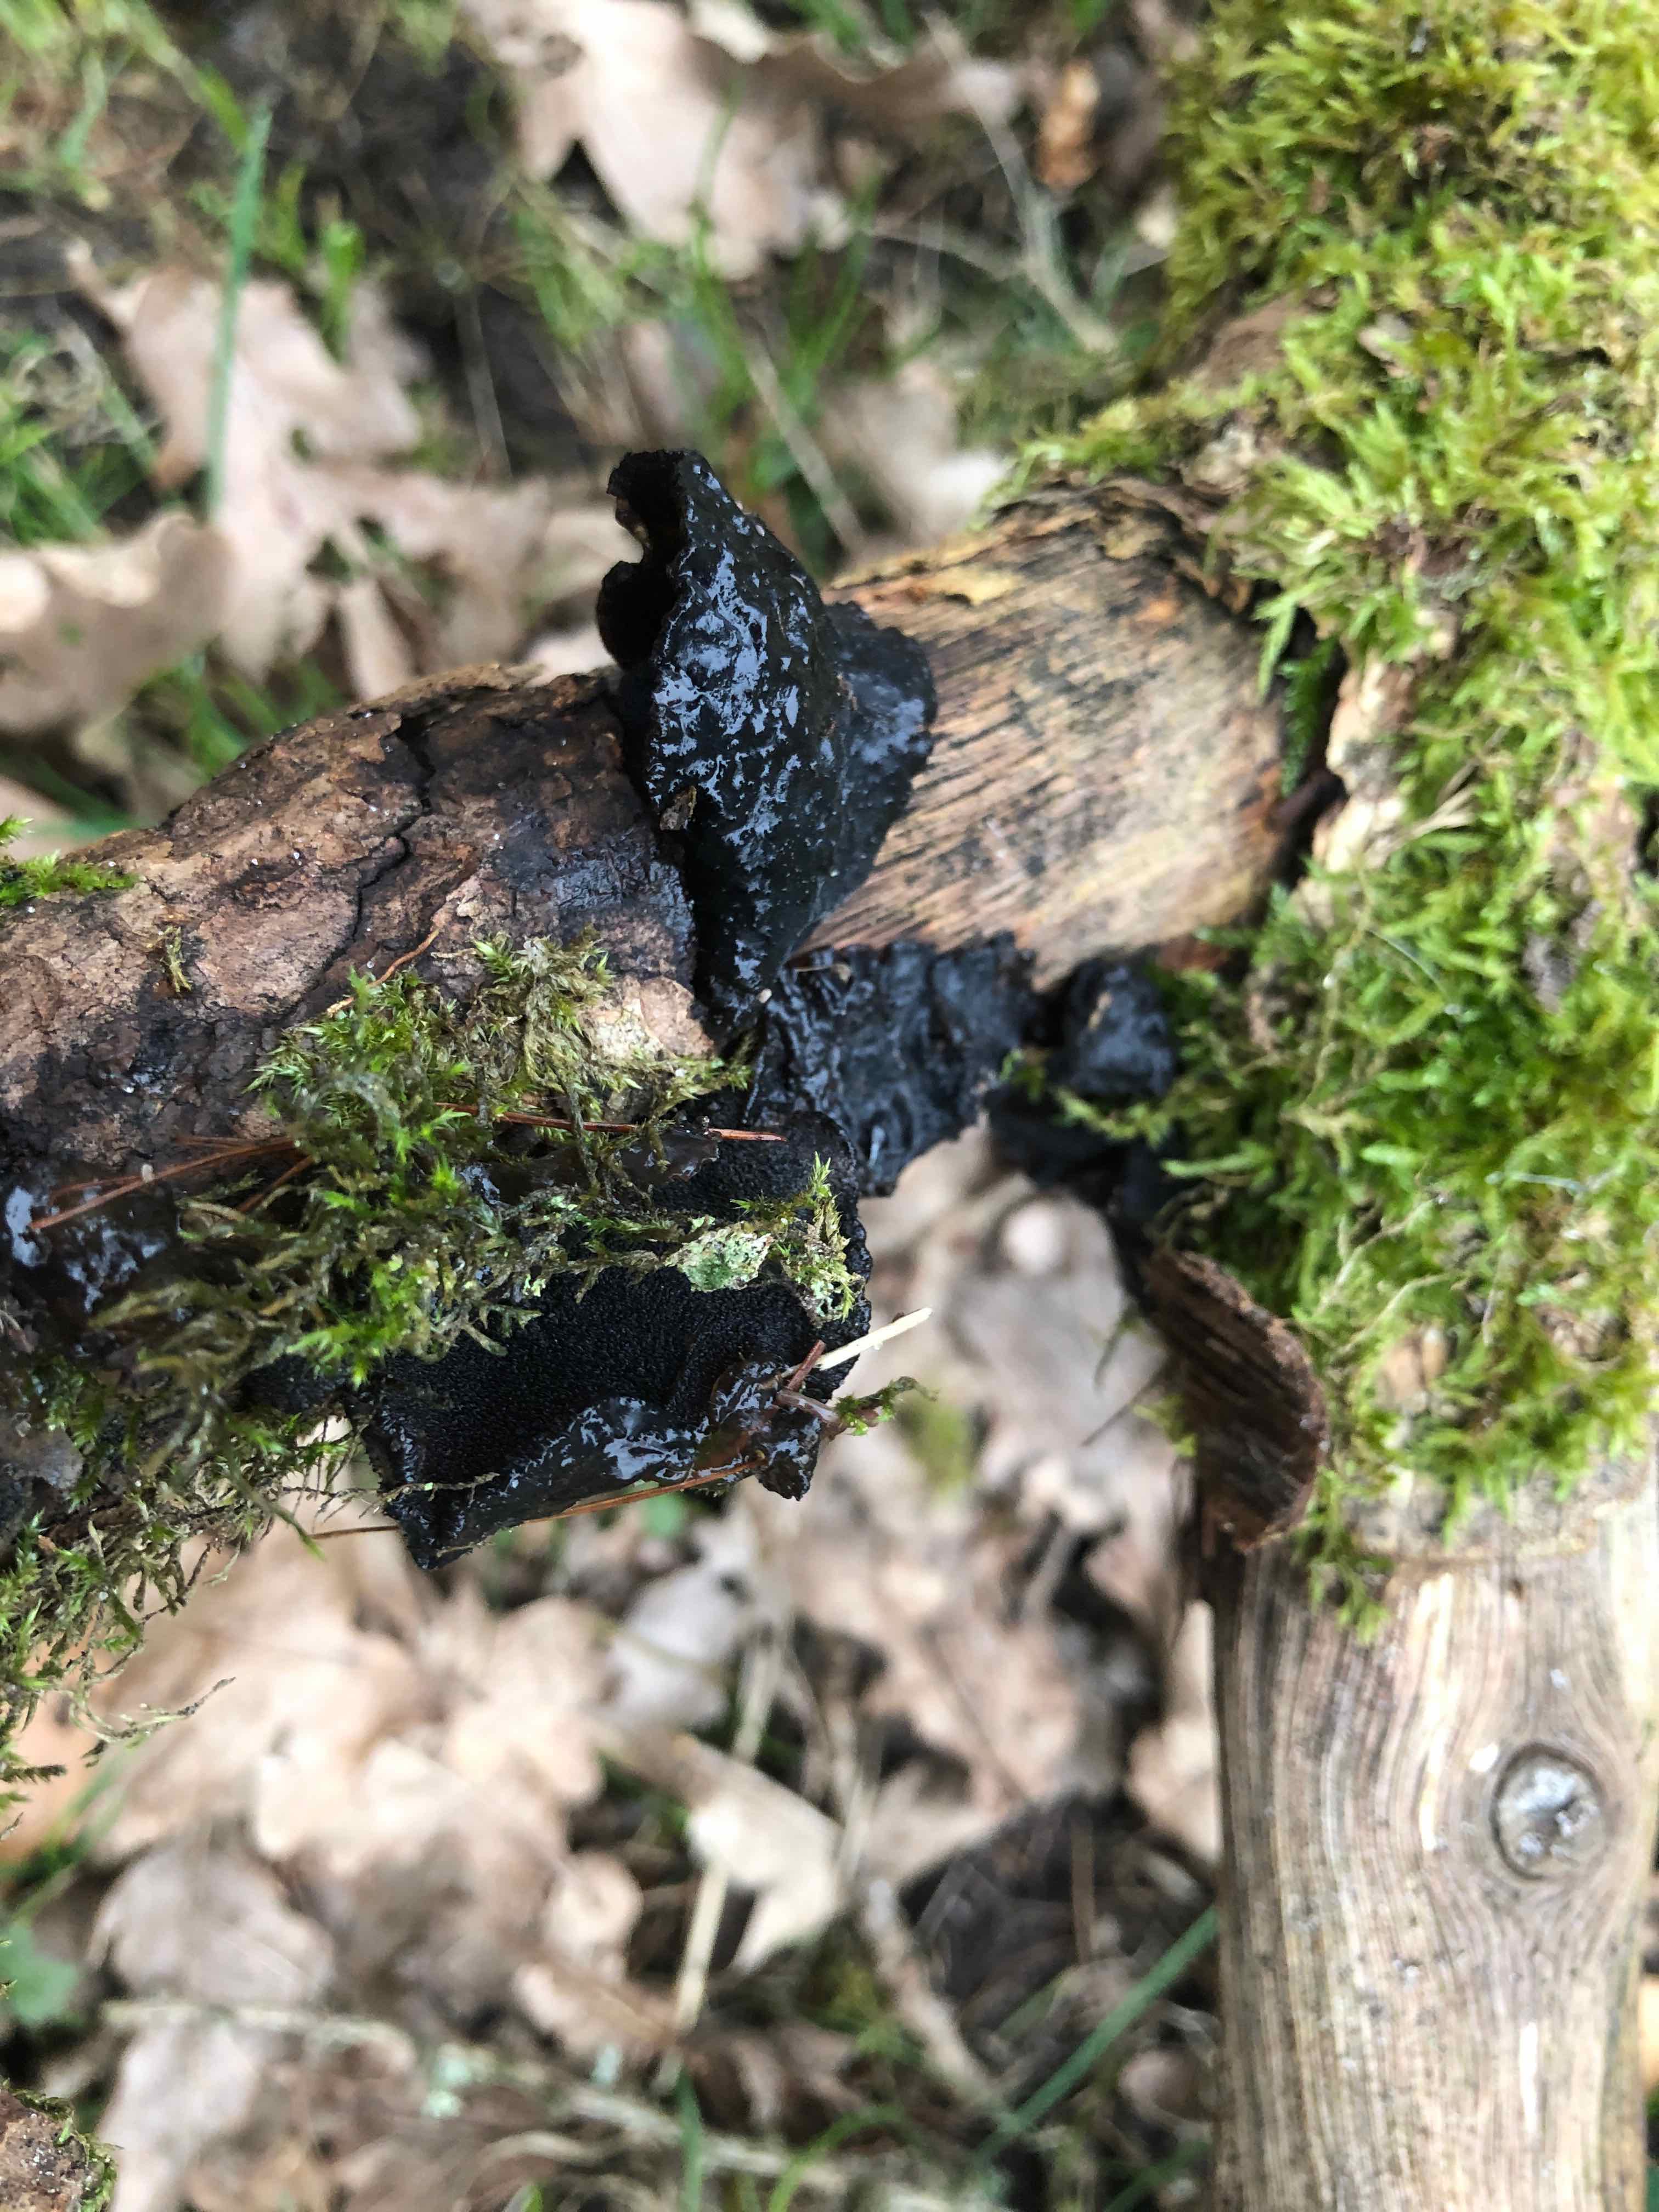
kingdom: Fungi
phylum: Basidiomycota
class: Agaricomycetes
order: Auriculariales
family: Auriculariaceae
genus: Exidia
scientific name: Exidia glandulosa
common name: ege-bævretop
